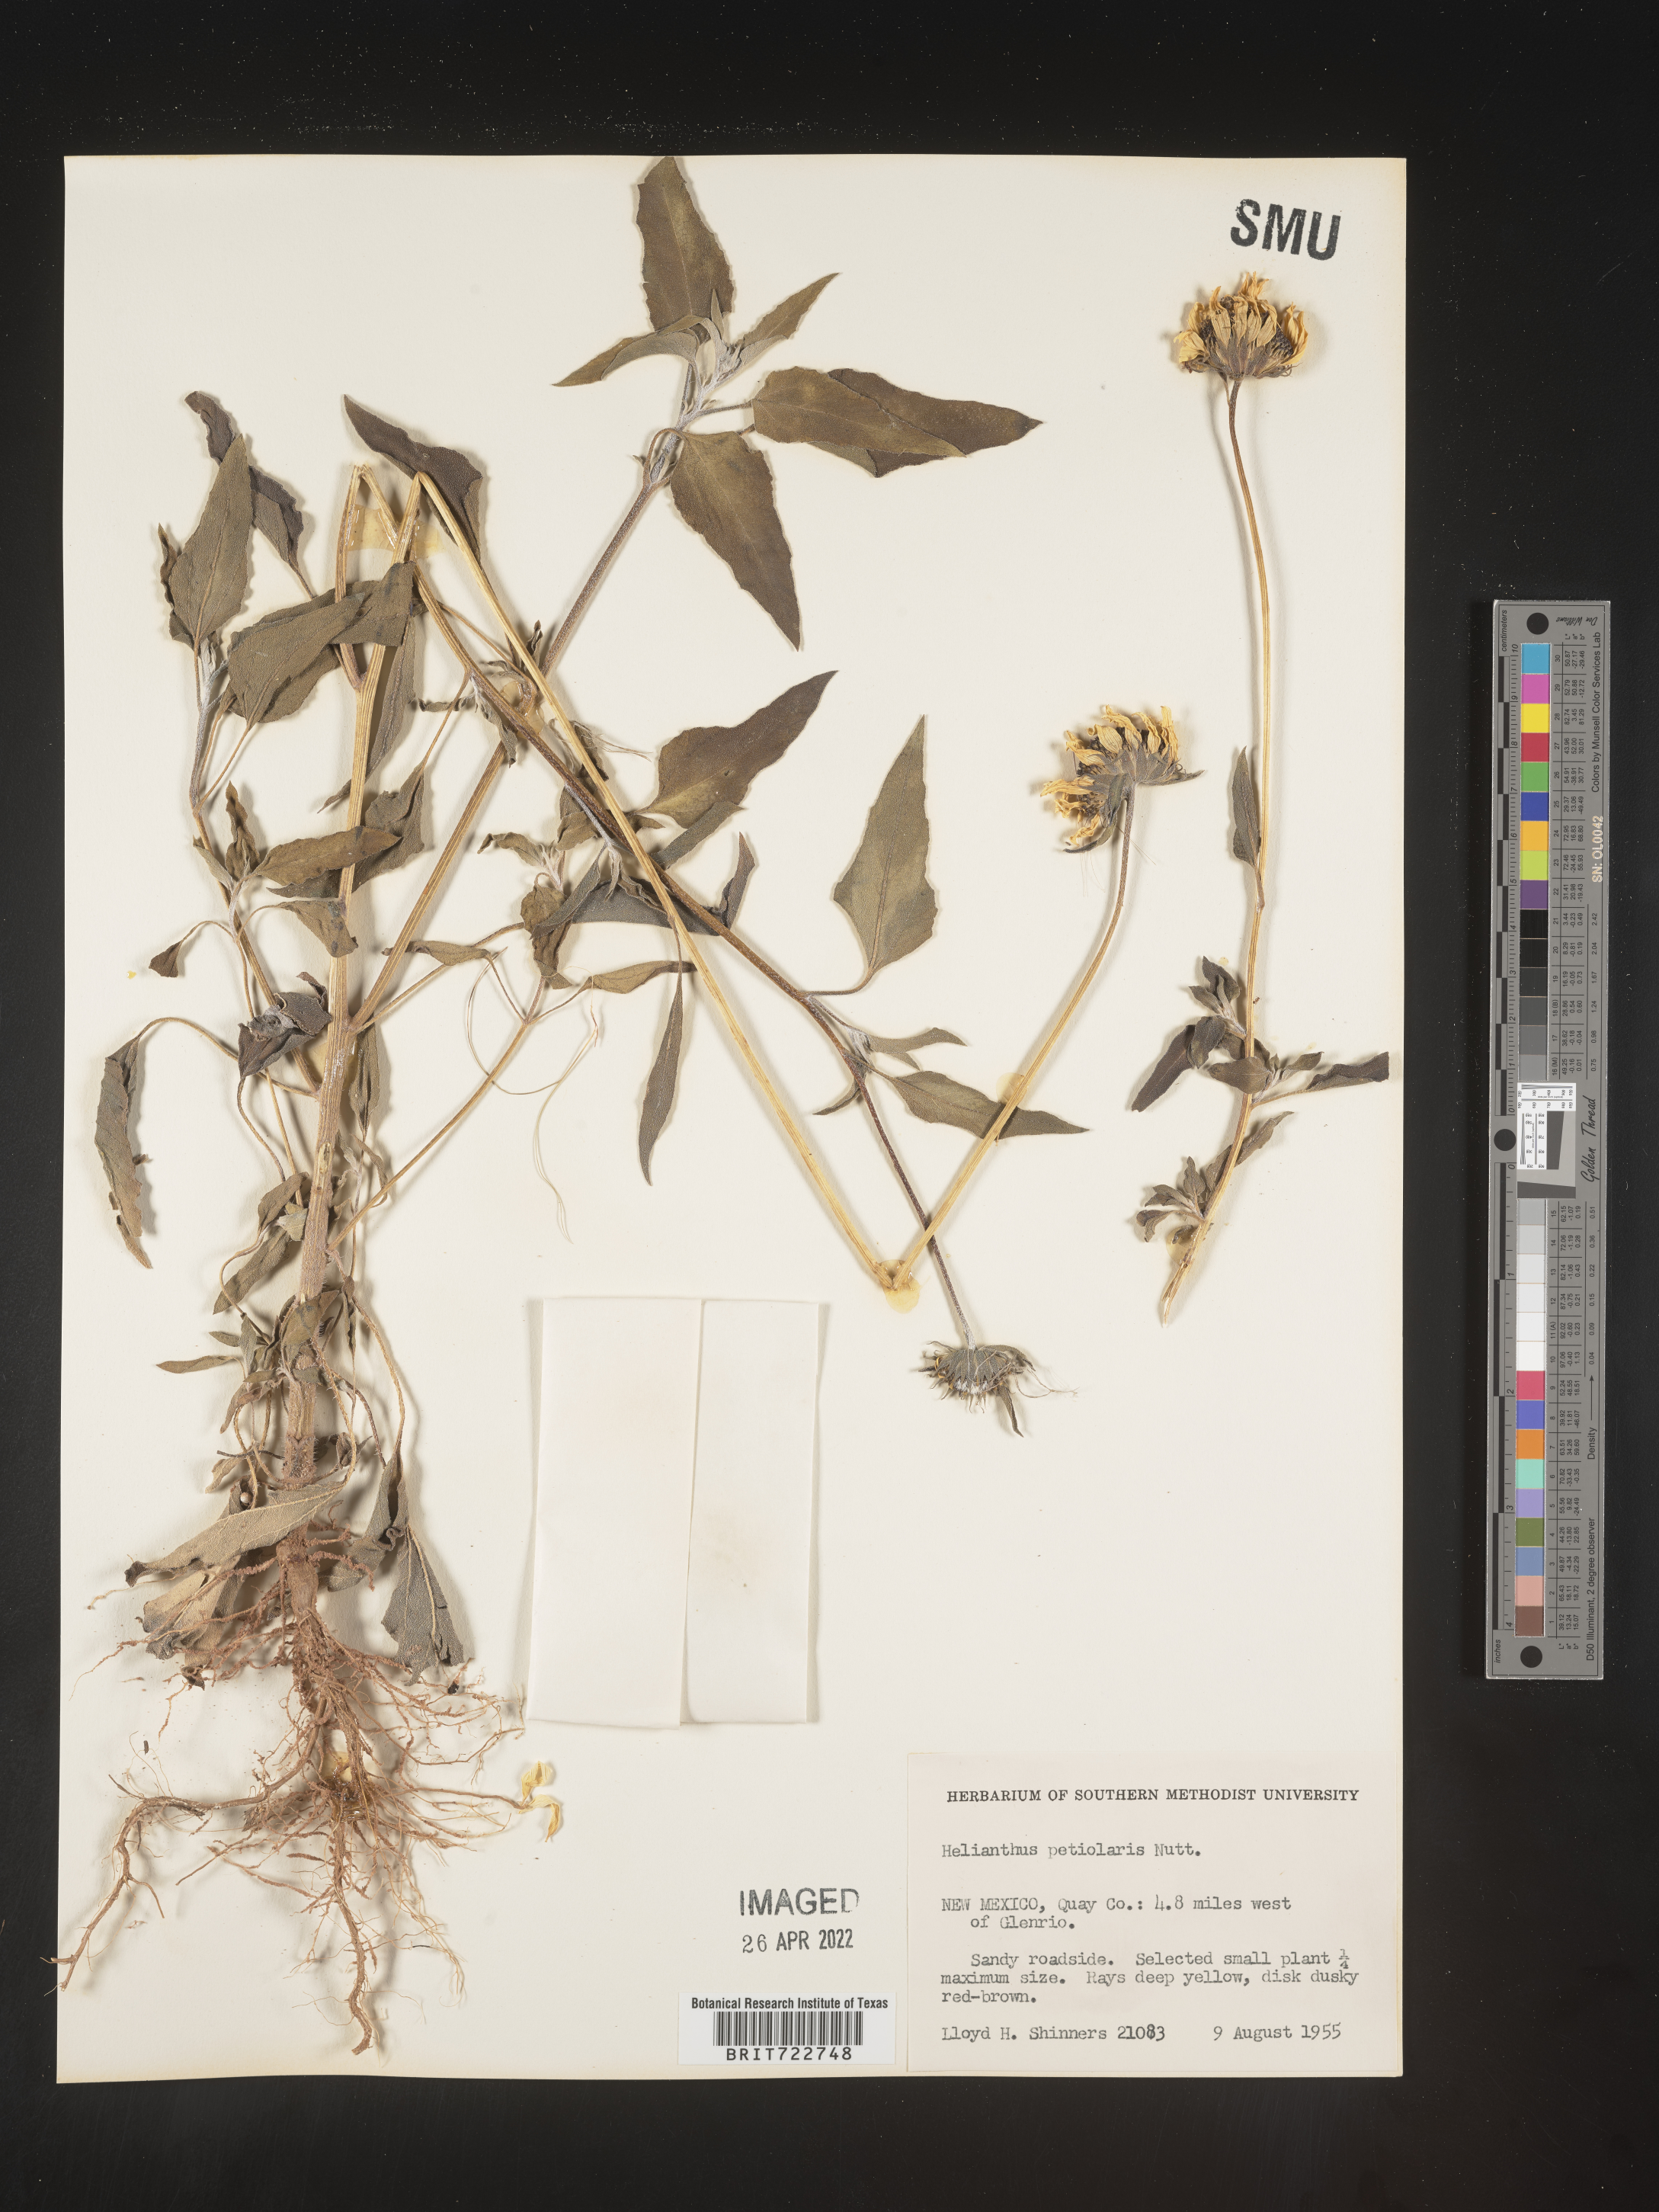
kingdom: Plantae
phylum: Tracheophyta
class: Magnoliopsida
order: Asterales
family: Asteraceae
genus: Helianthus
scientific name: Helianthus petiolaris
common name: Lesser sunflower
